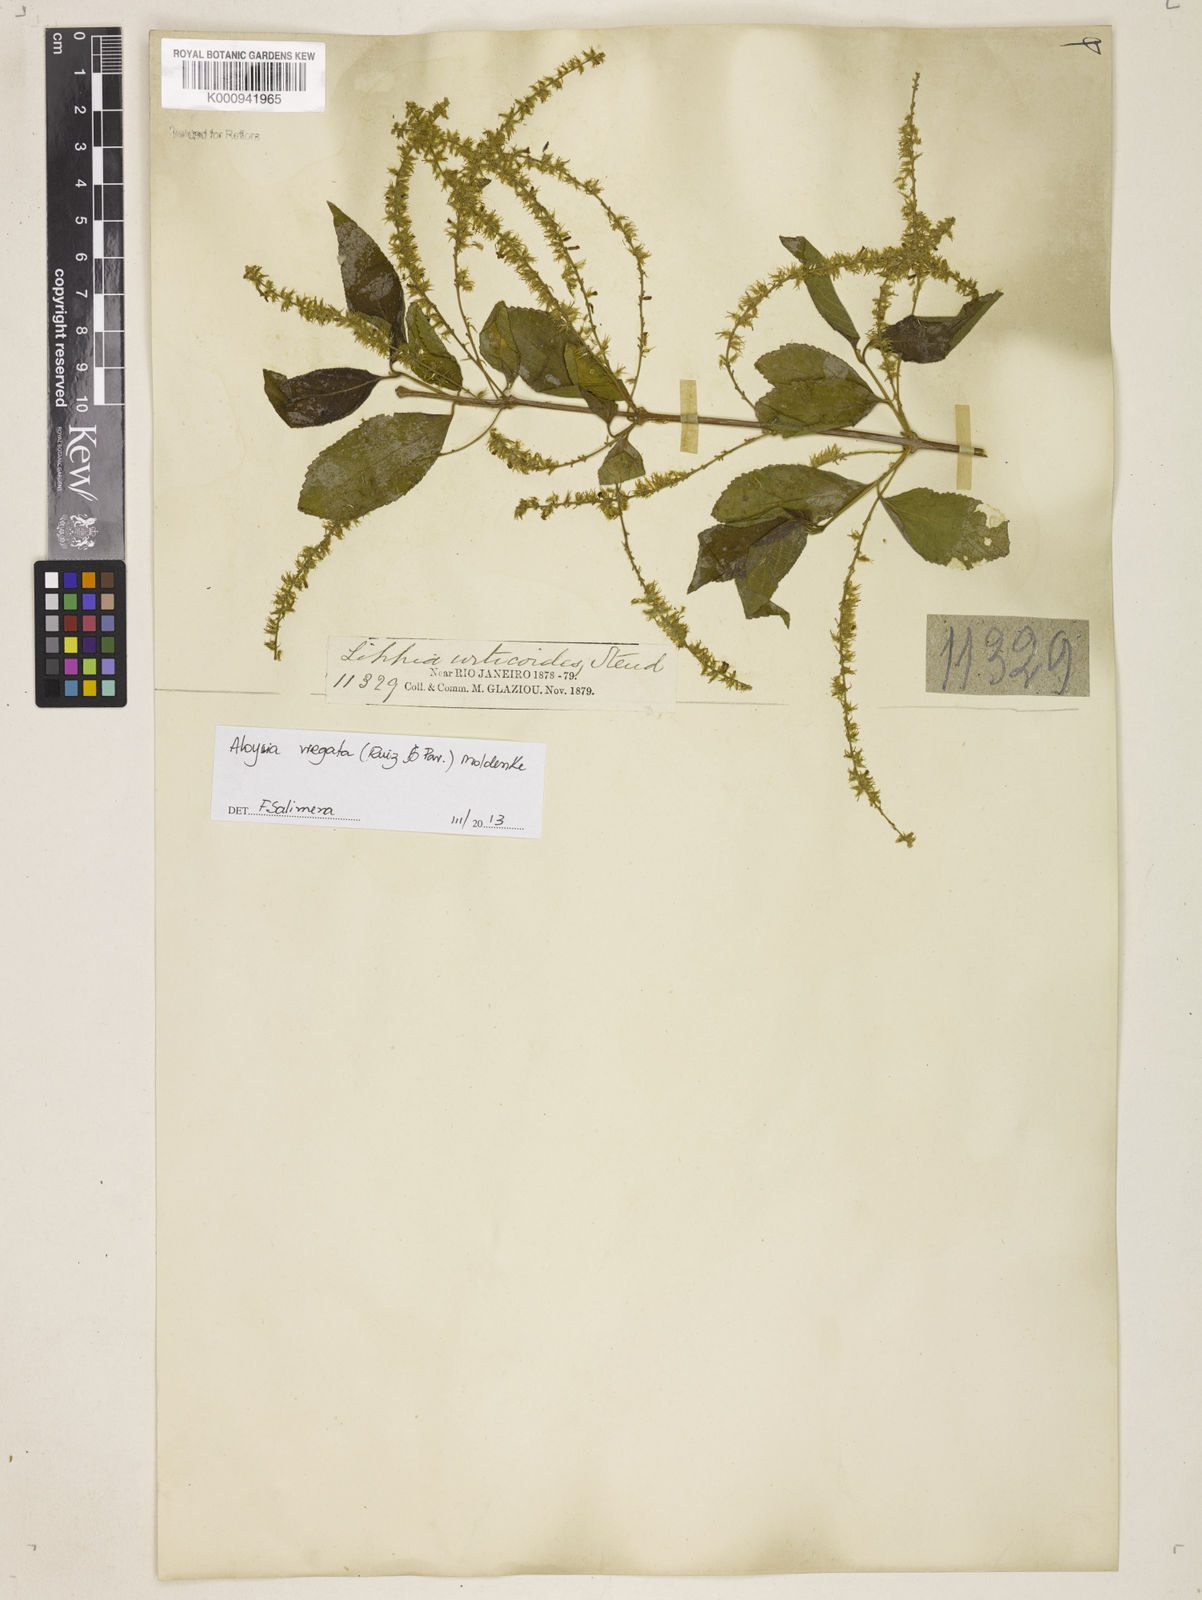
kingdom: Plantae
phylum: Tracheophyta
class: Magnoliopsida
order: Lamiales
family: Verbenaceae
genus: Aloysia
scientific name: Aloysia
